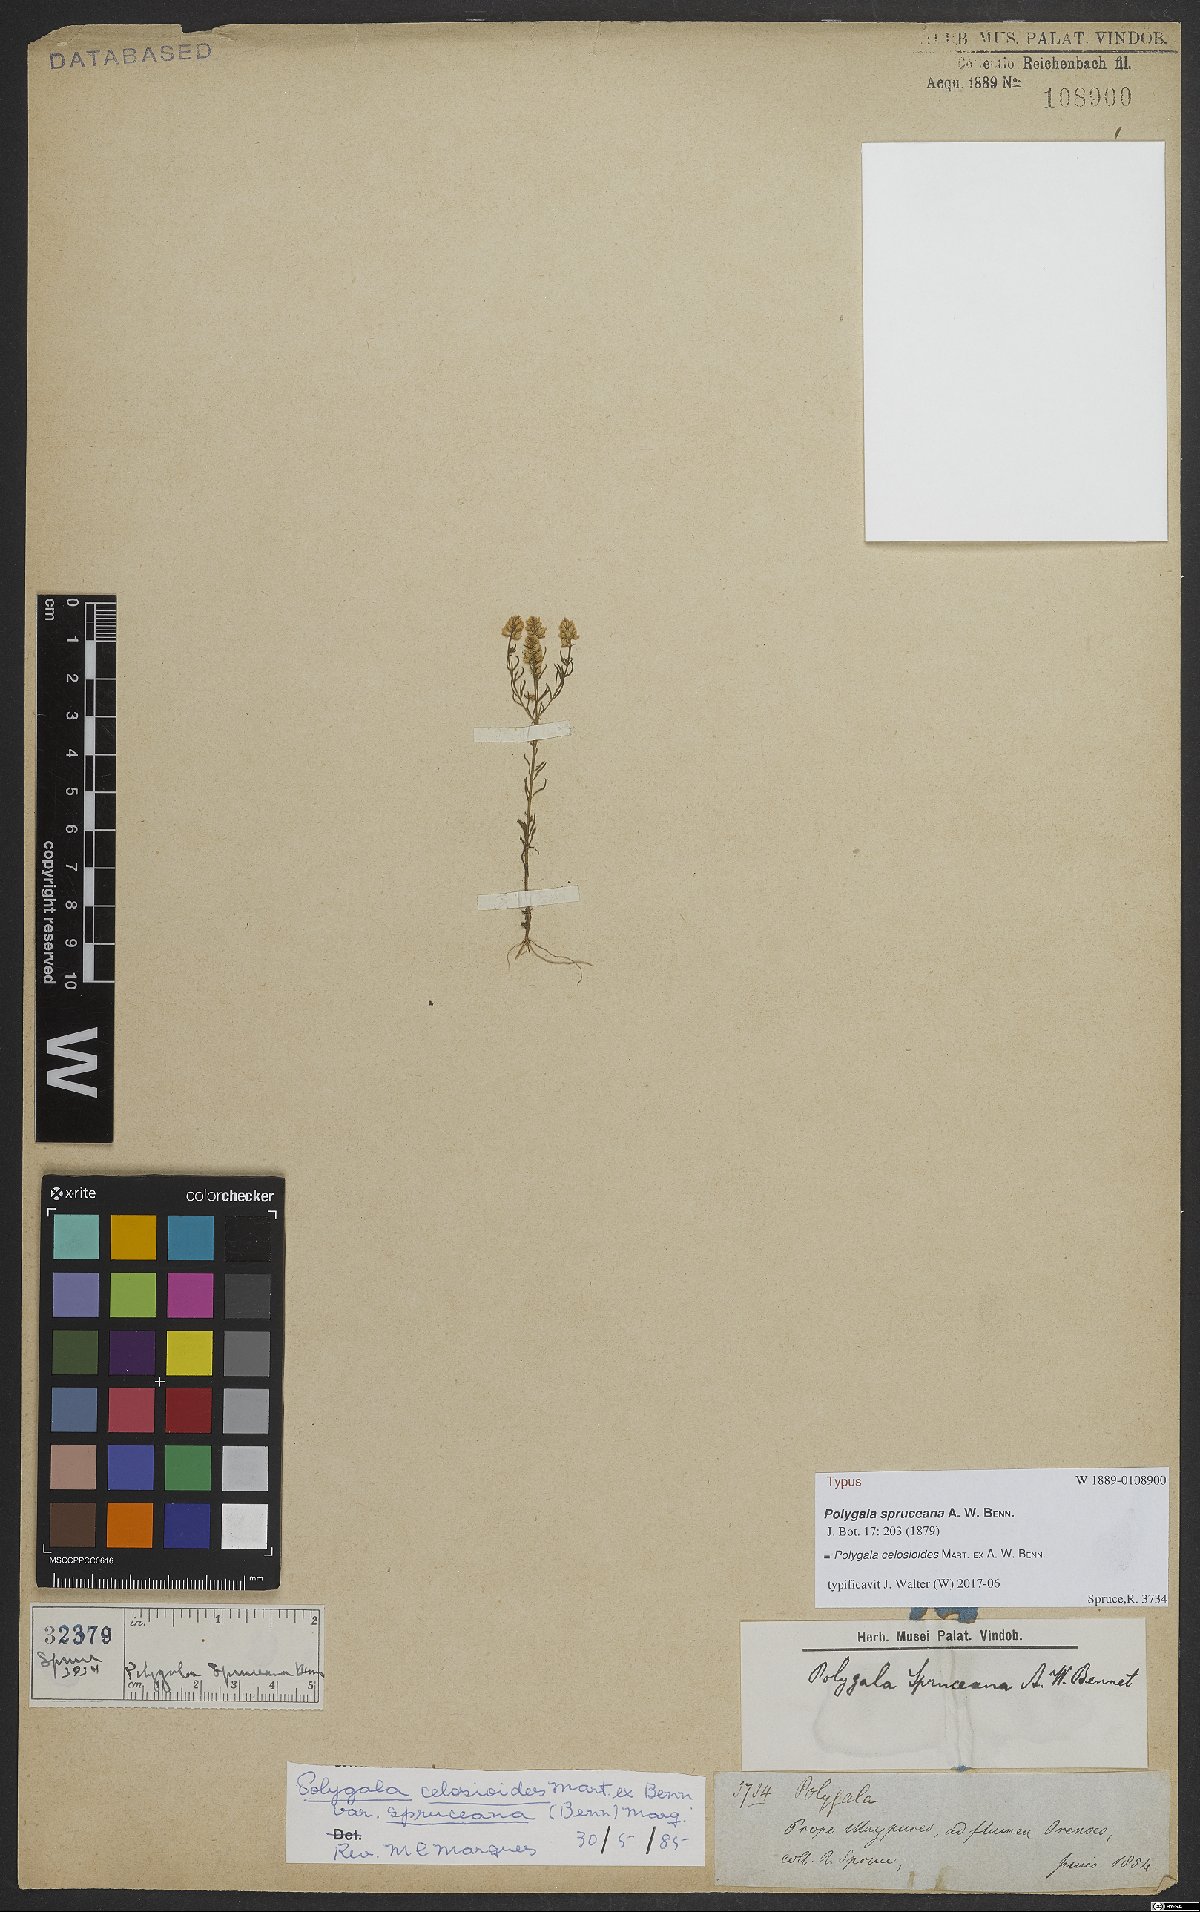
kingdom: Plantae
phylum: Tracheophyta
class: Magnoliopsida
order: Fabales
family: Polygalaceae
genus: Polygala
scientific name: Polygala celosioides
